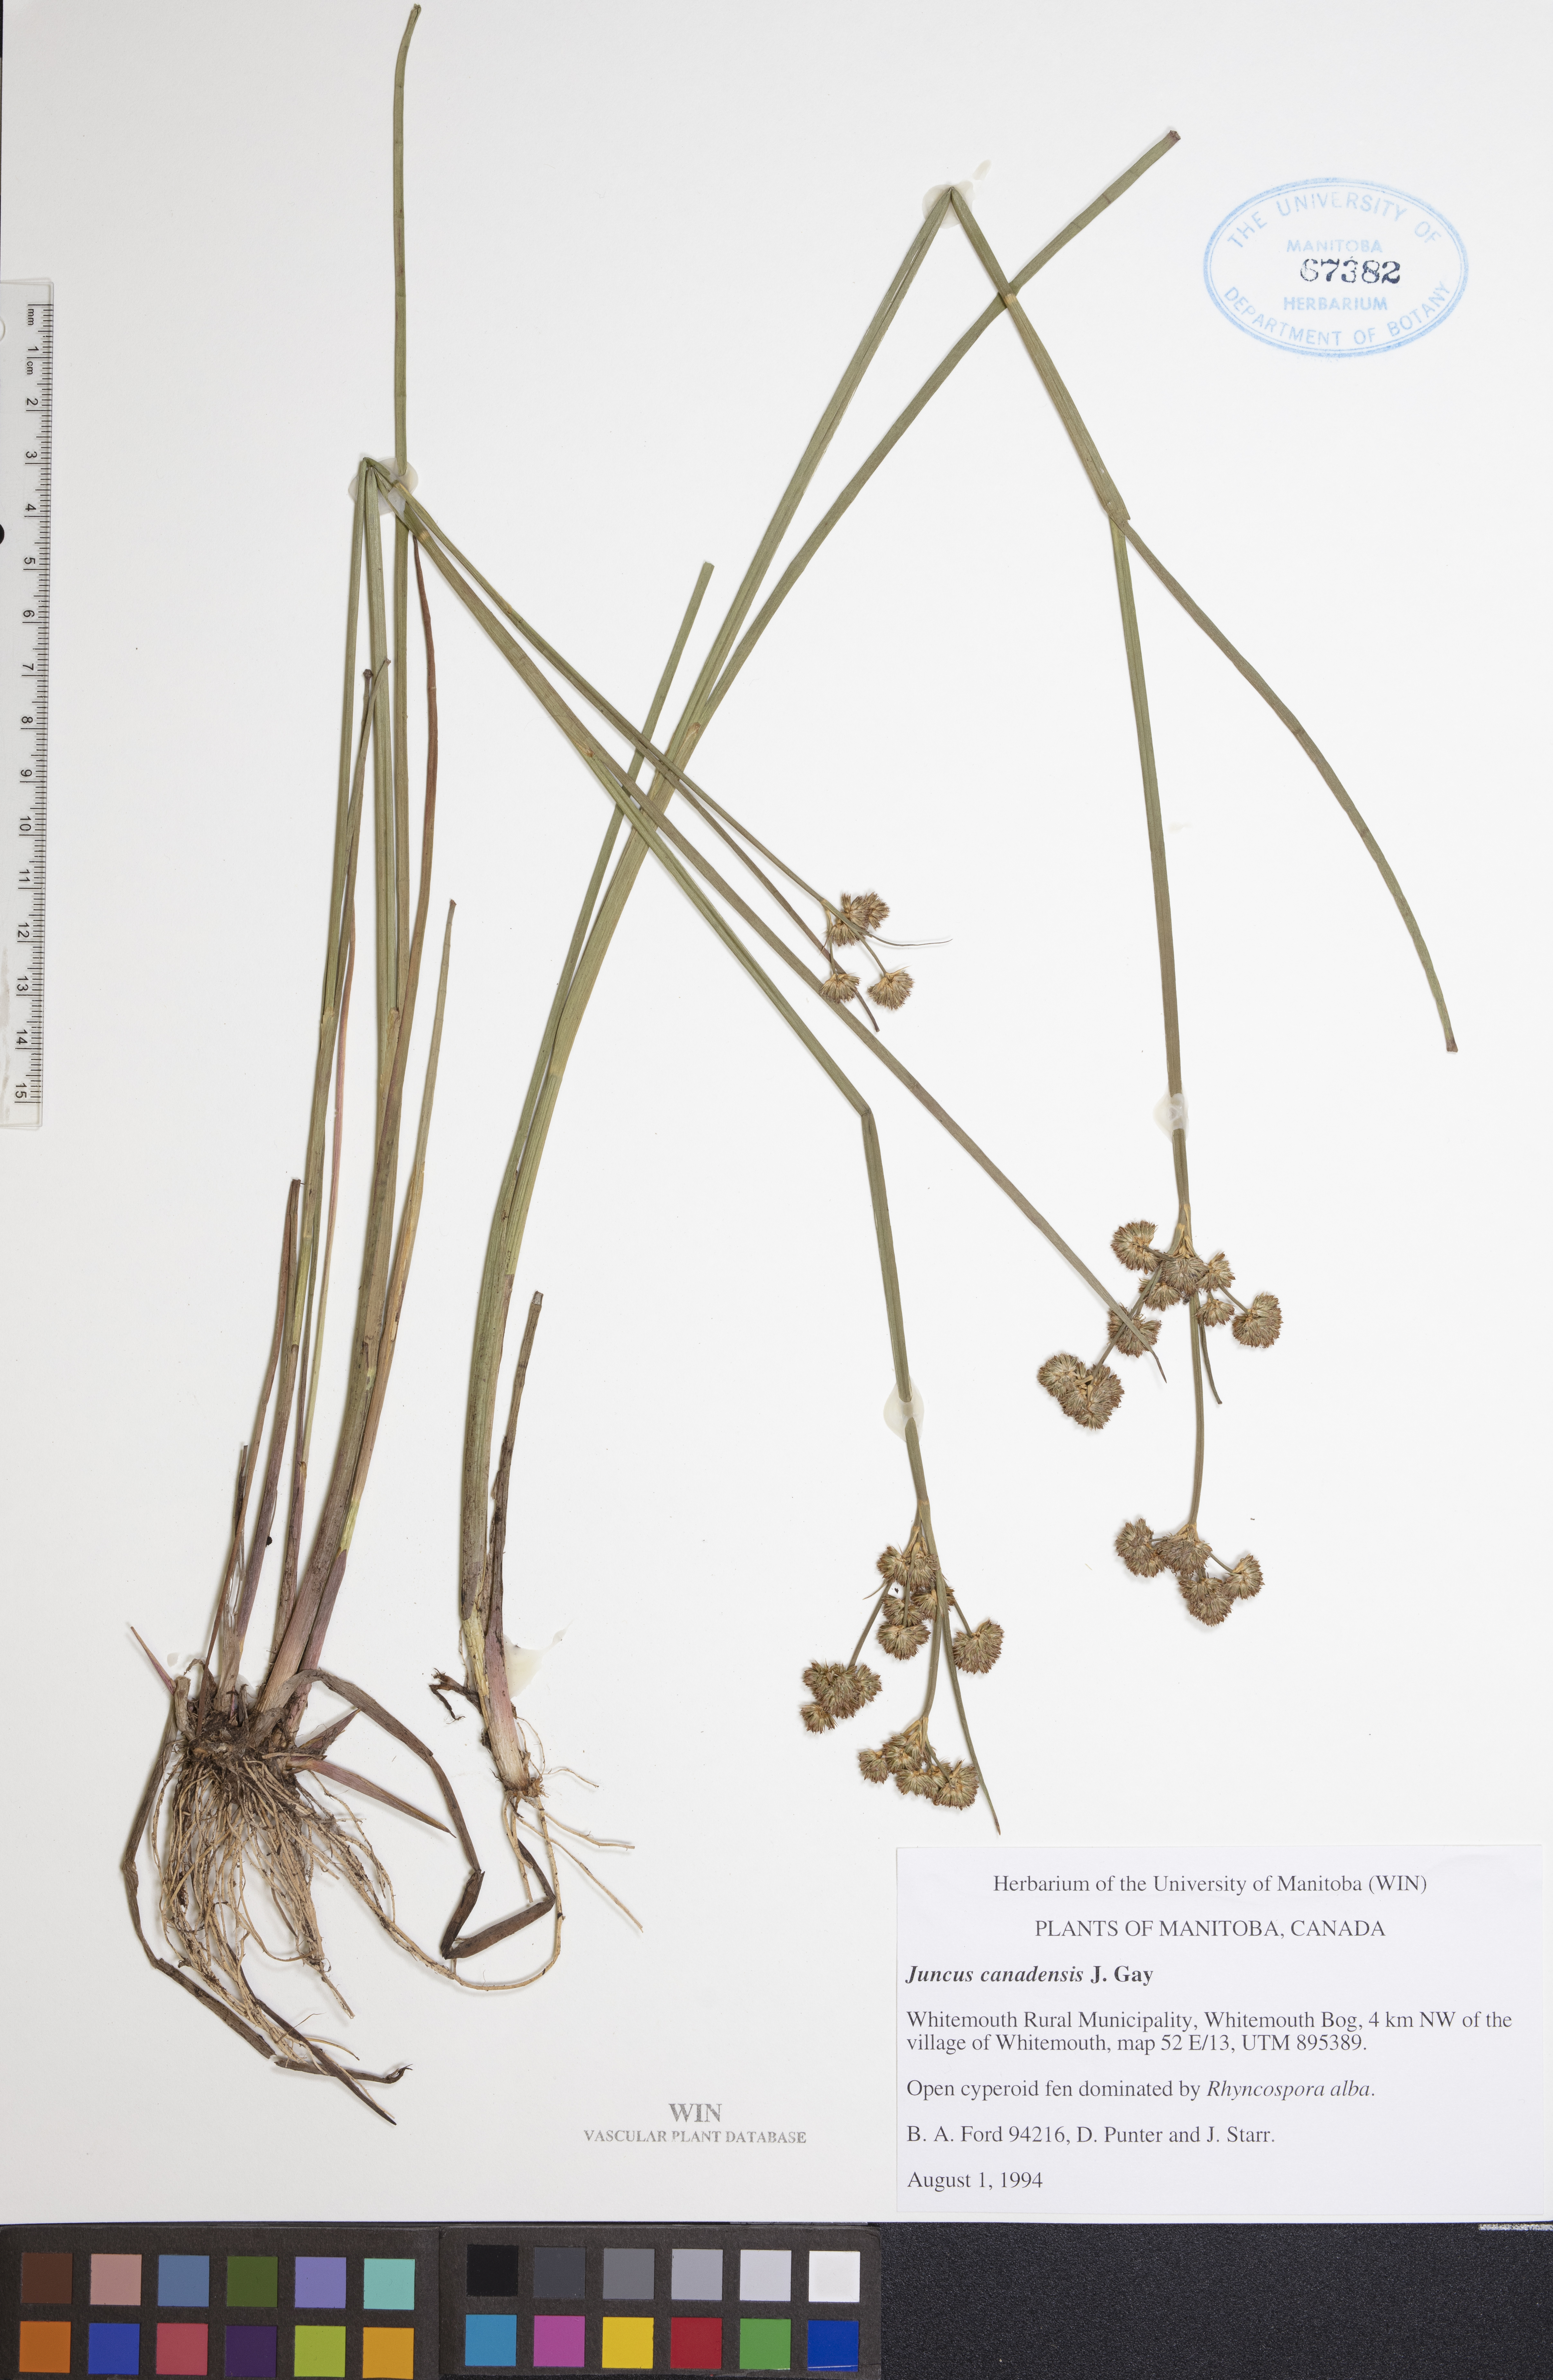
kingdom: Plantae
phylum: Tracheophyta
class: Liliopsida
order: Poales
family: Juncaceae
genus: Juncus
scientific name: Juncus canadensis
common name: Canada rush
